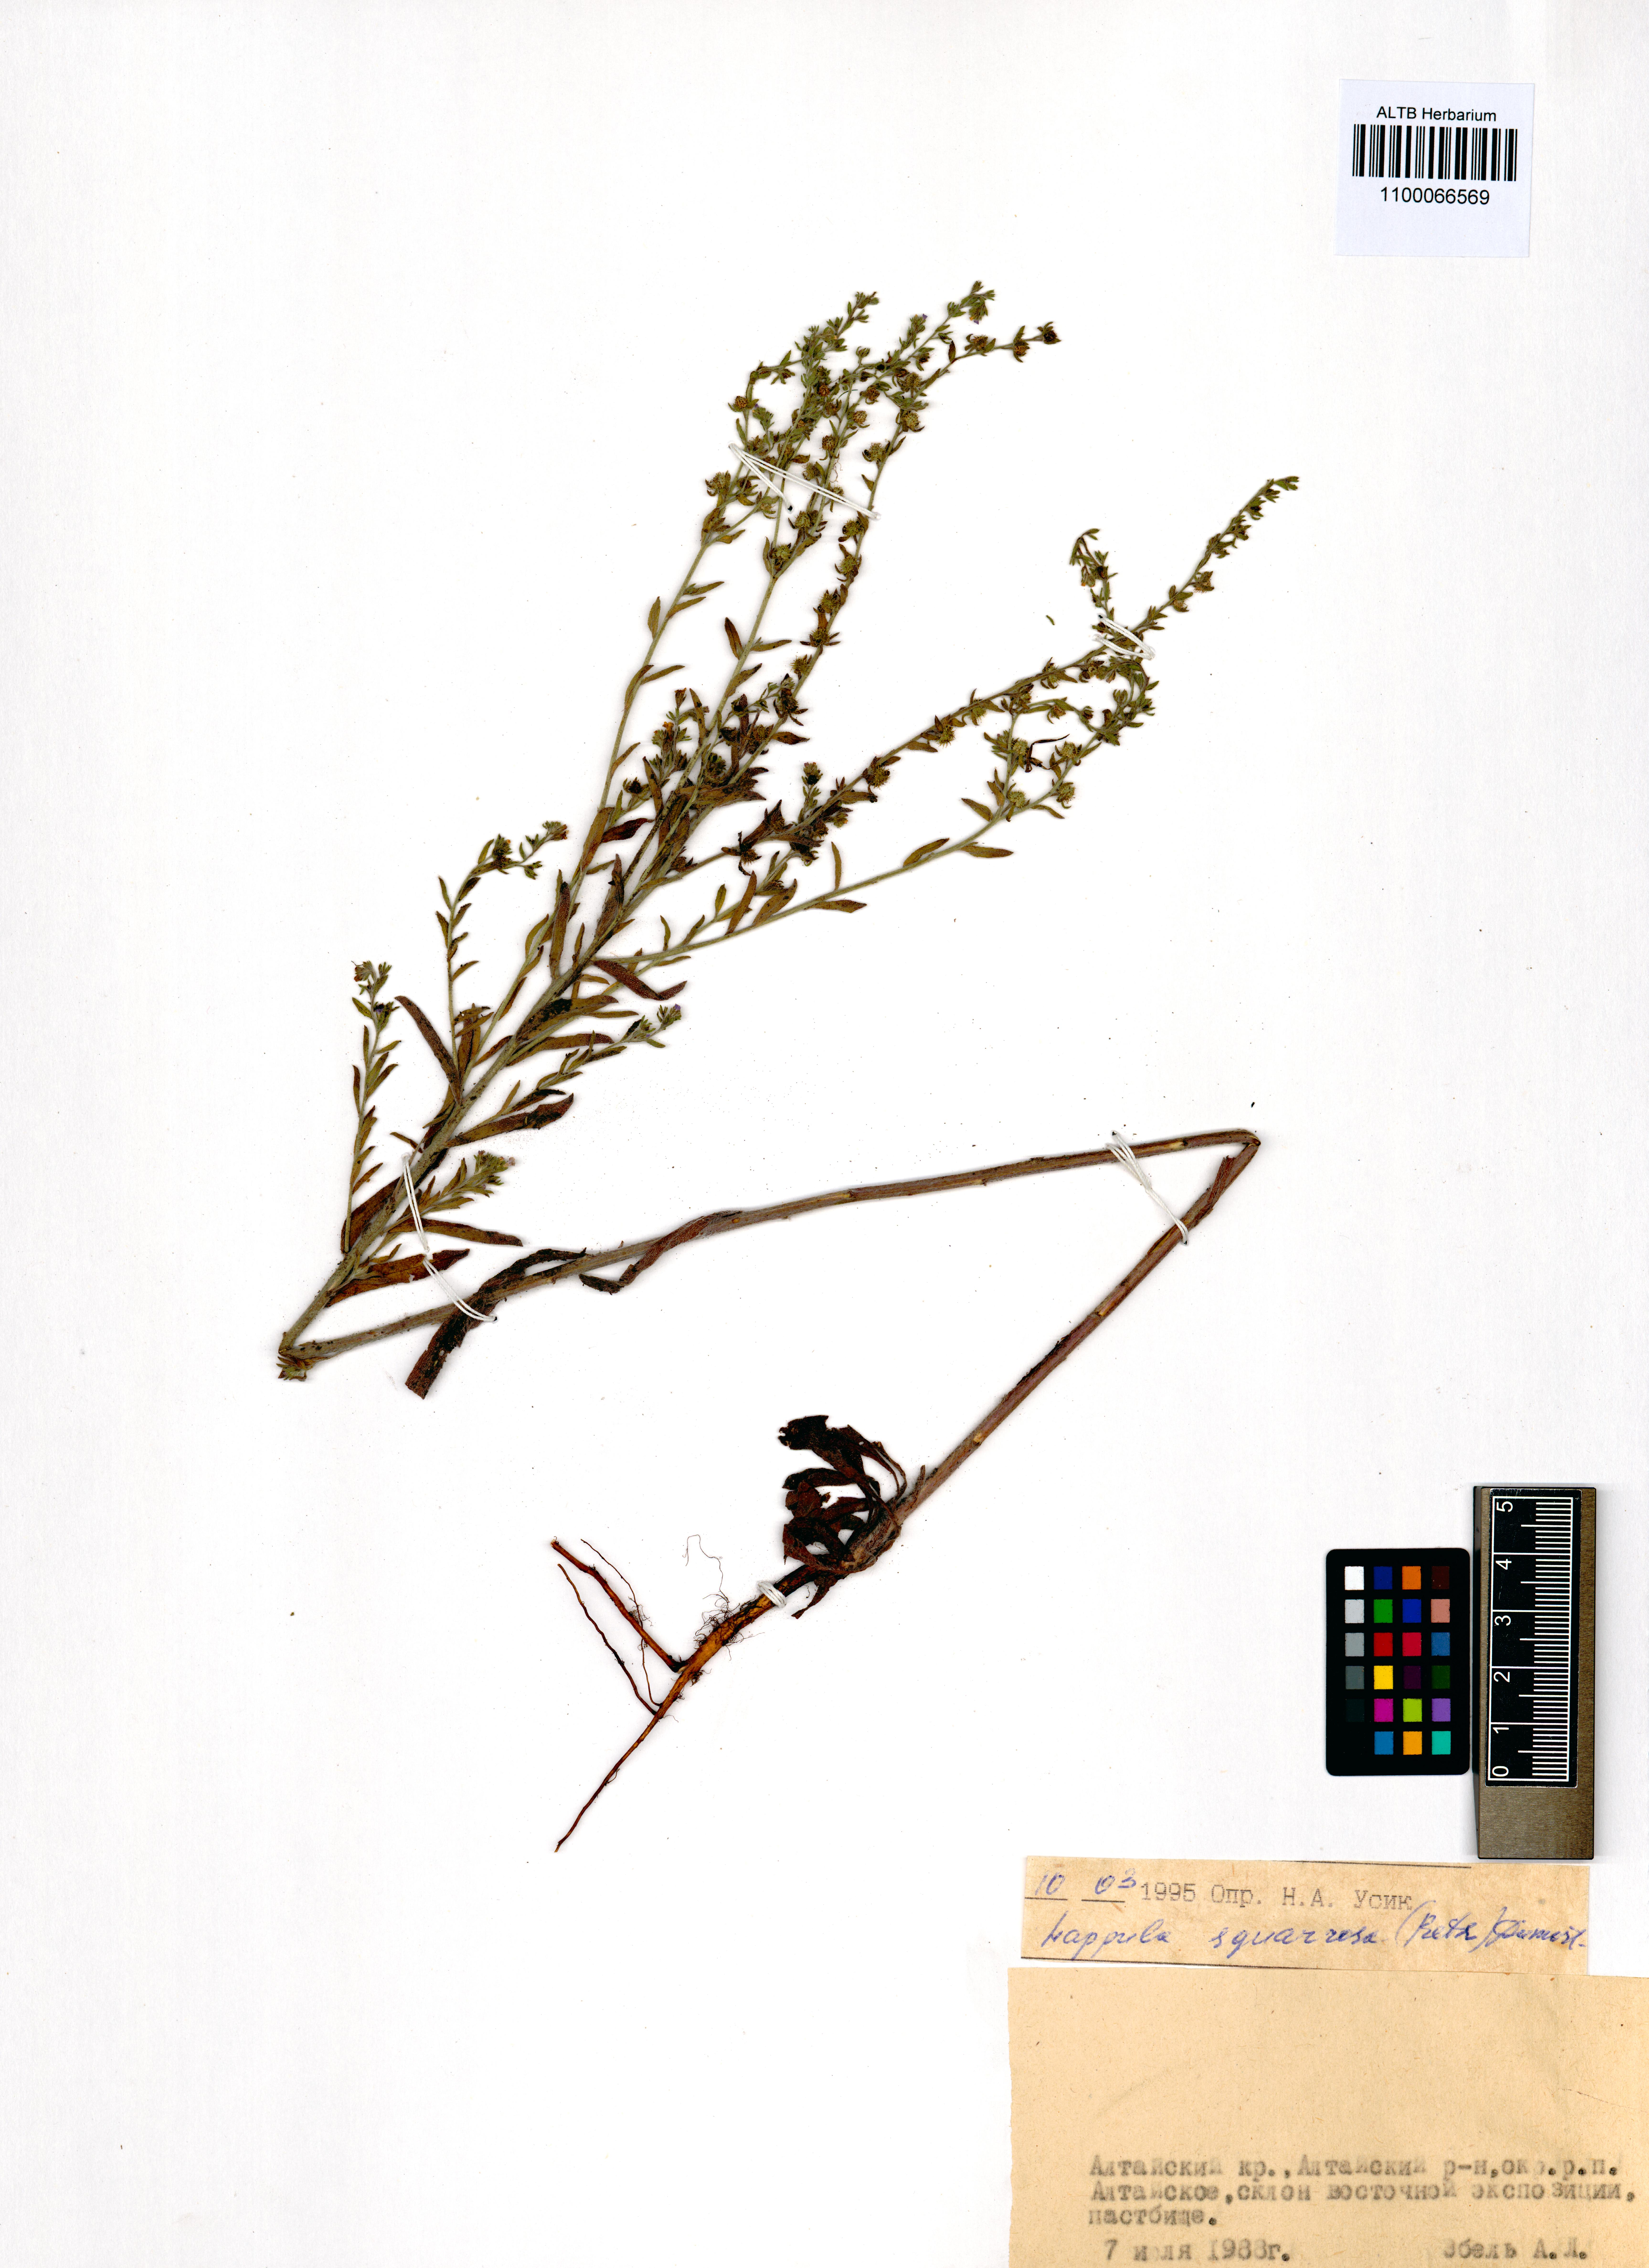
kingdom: Plantae
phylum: Tracheophyta
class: Magnoliopsida
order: Boraginales
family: Boraginaceae
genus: Lappula
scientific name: Lappula squarrosa
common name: European stickseed
